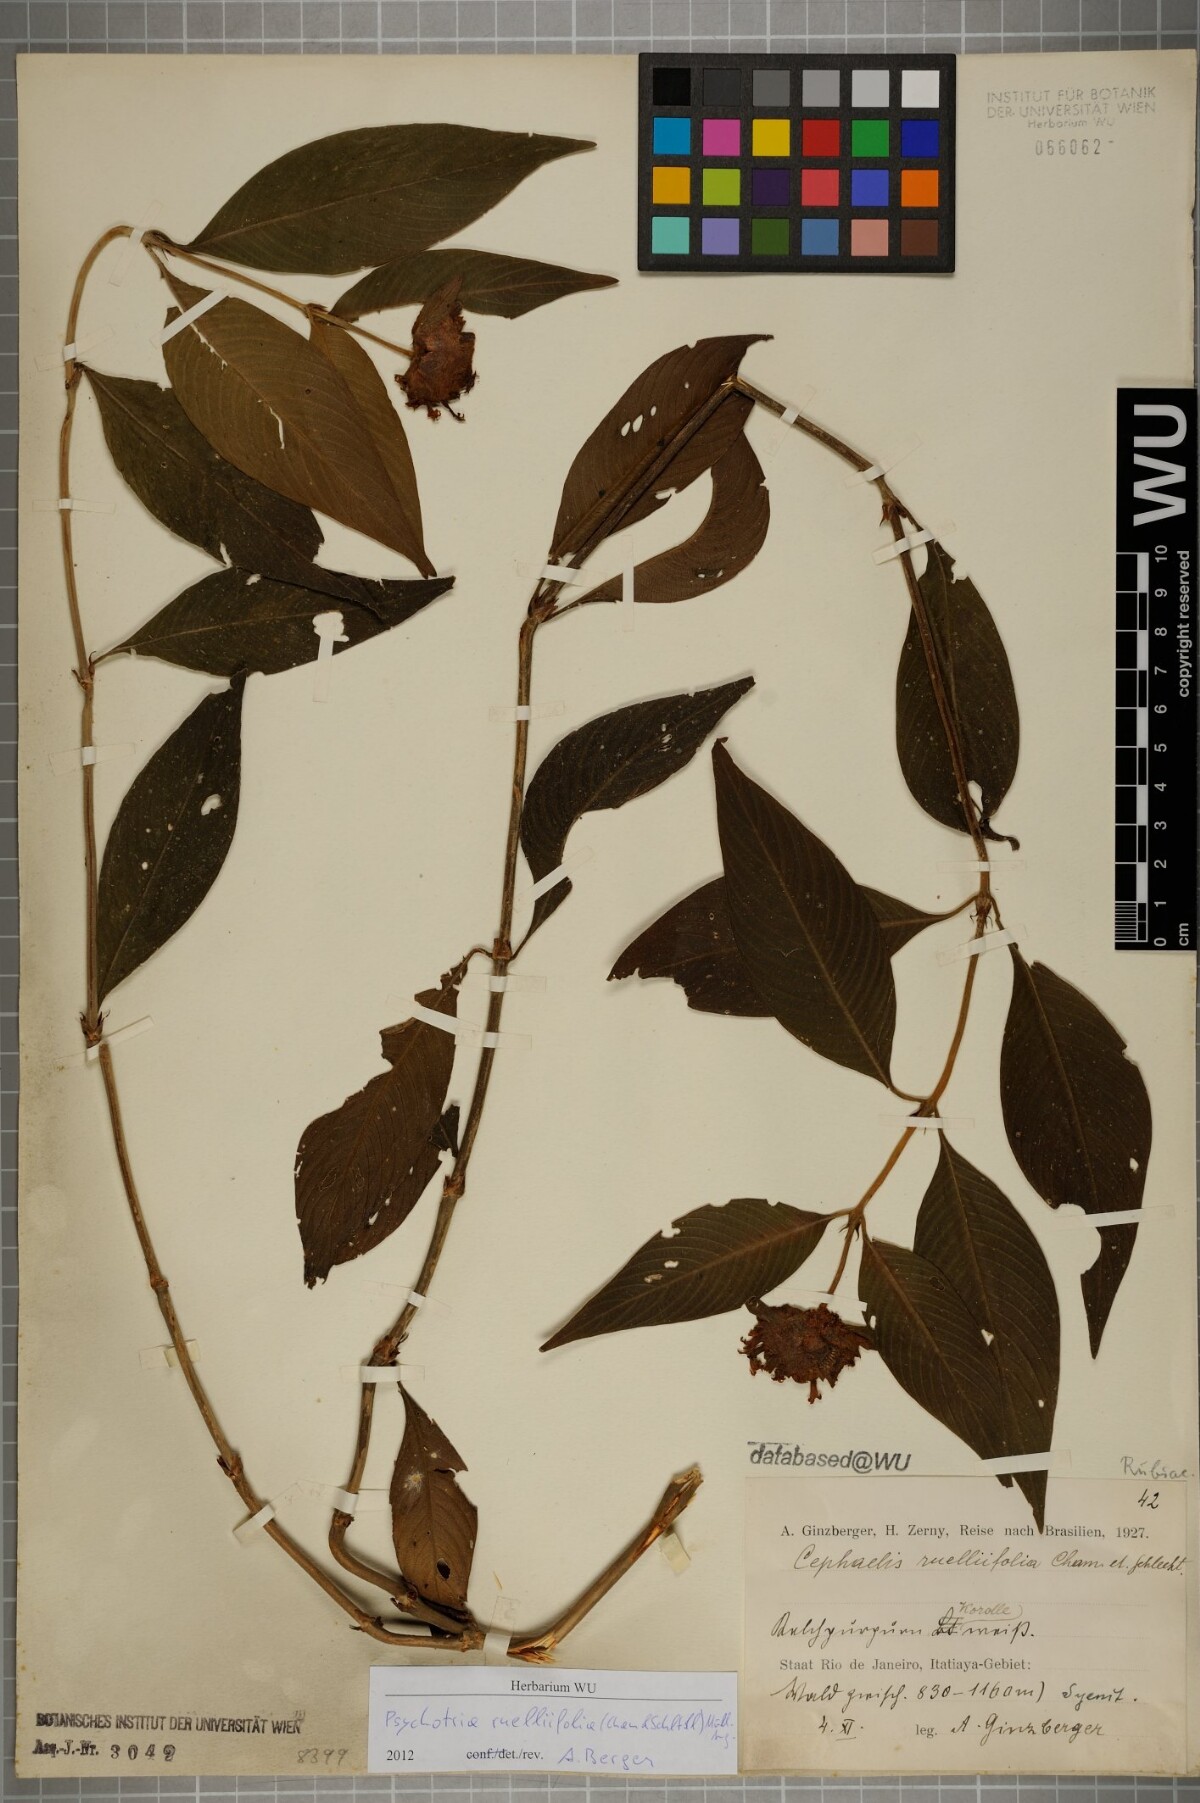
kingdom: Plantae
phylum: Tracheophyta
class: Magnoliopsida
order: Gentianales
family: Rubiaceae
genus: Palicourea
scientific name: Palicourea ruelliifolia
